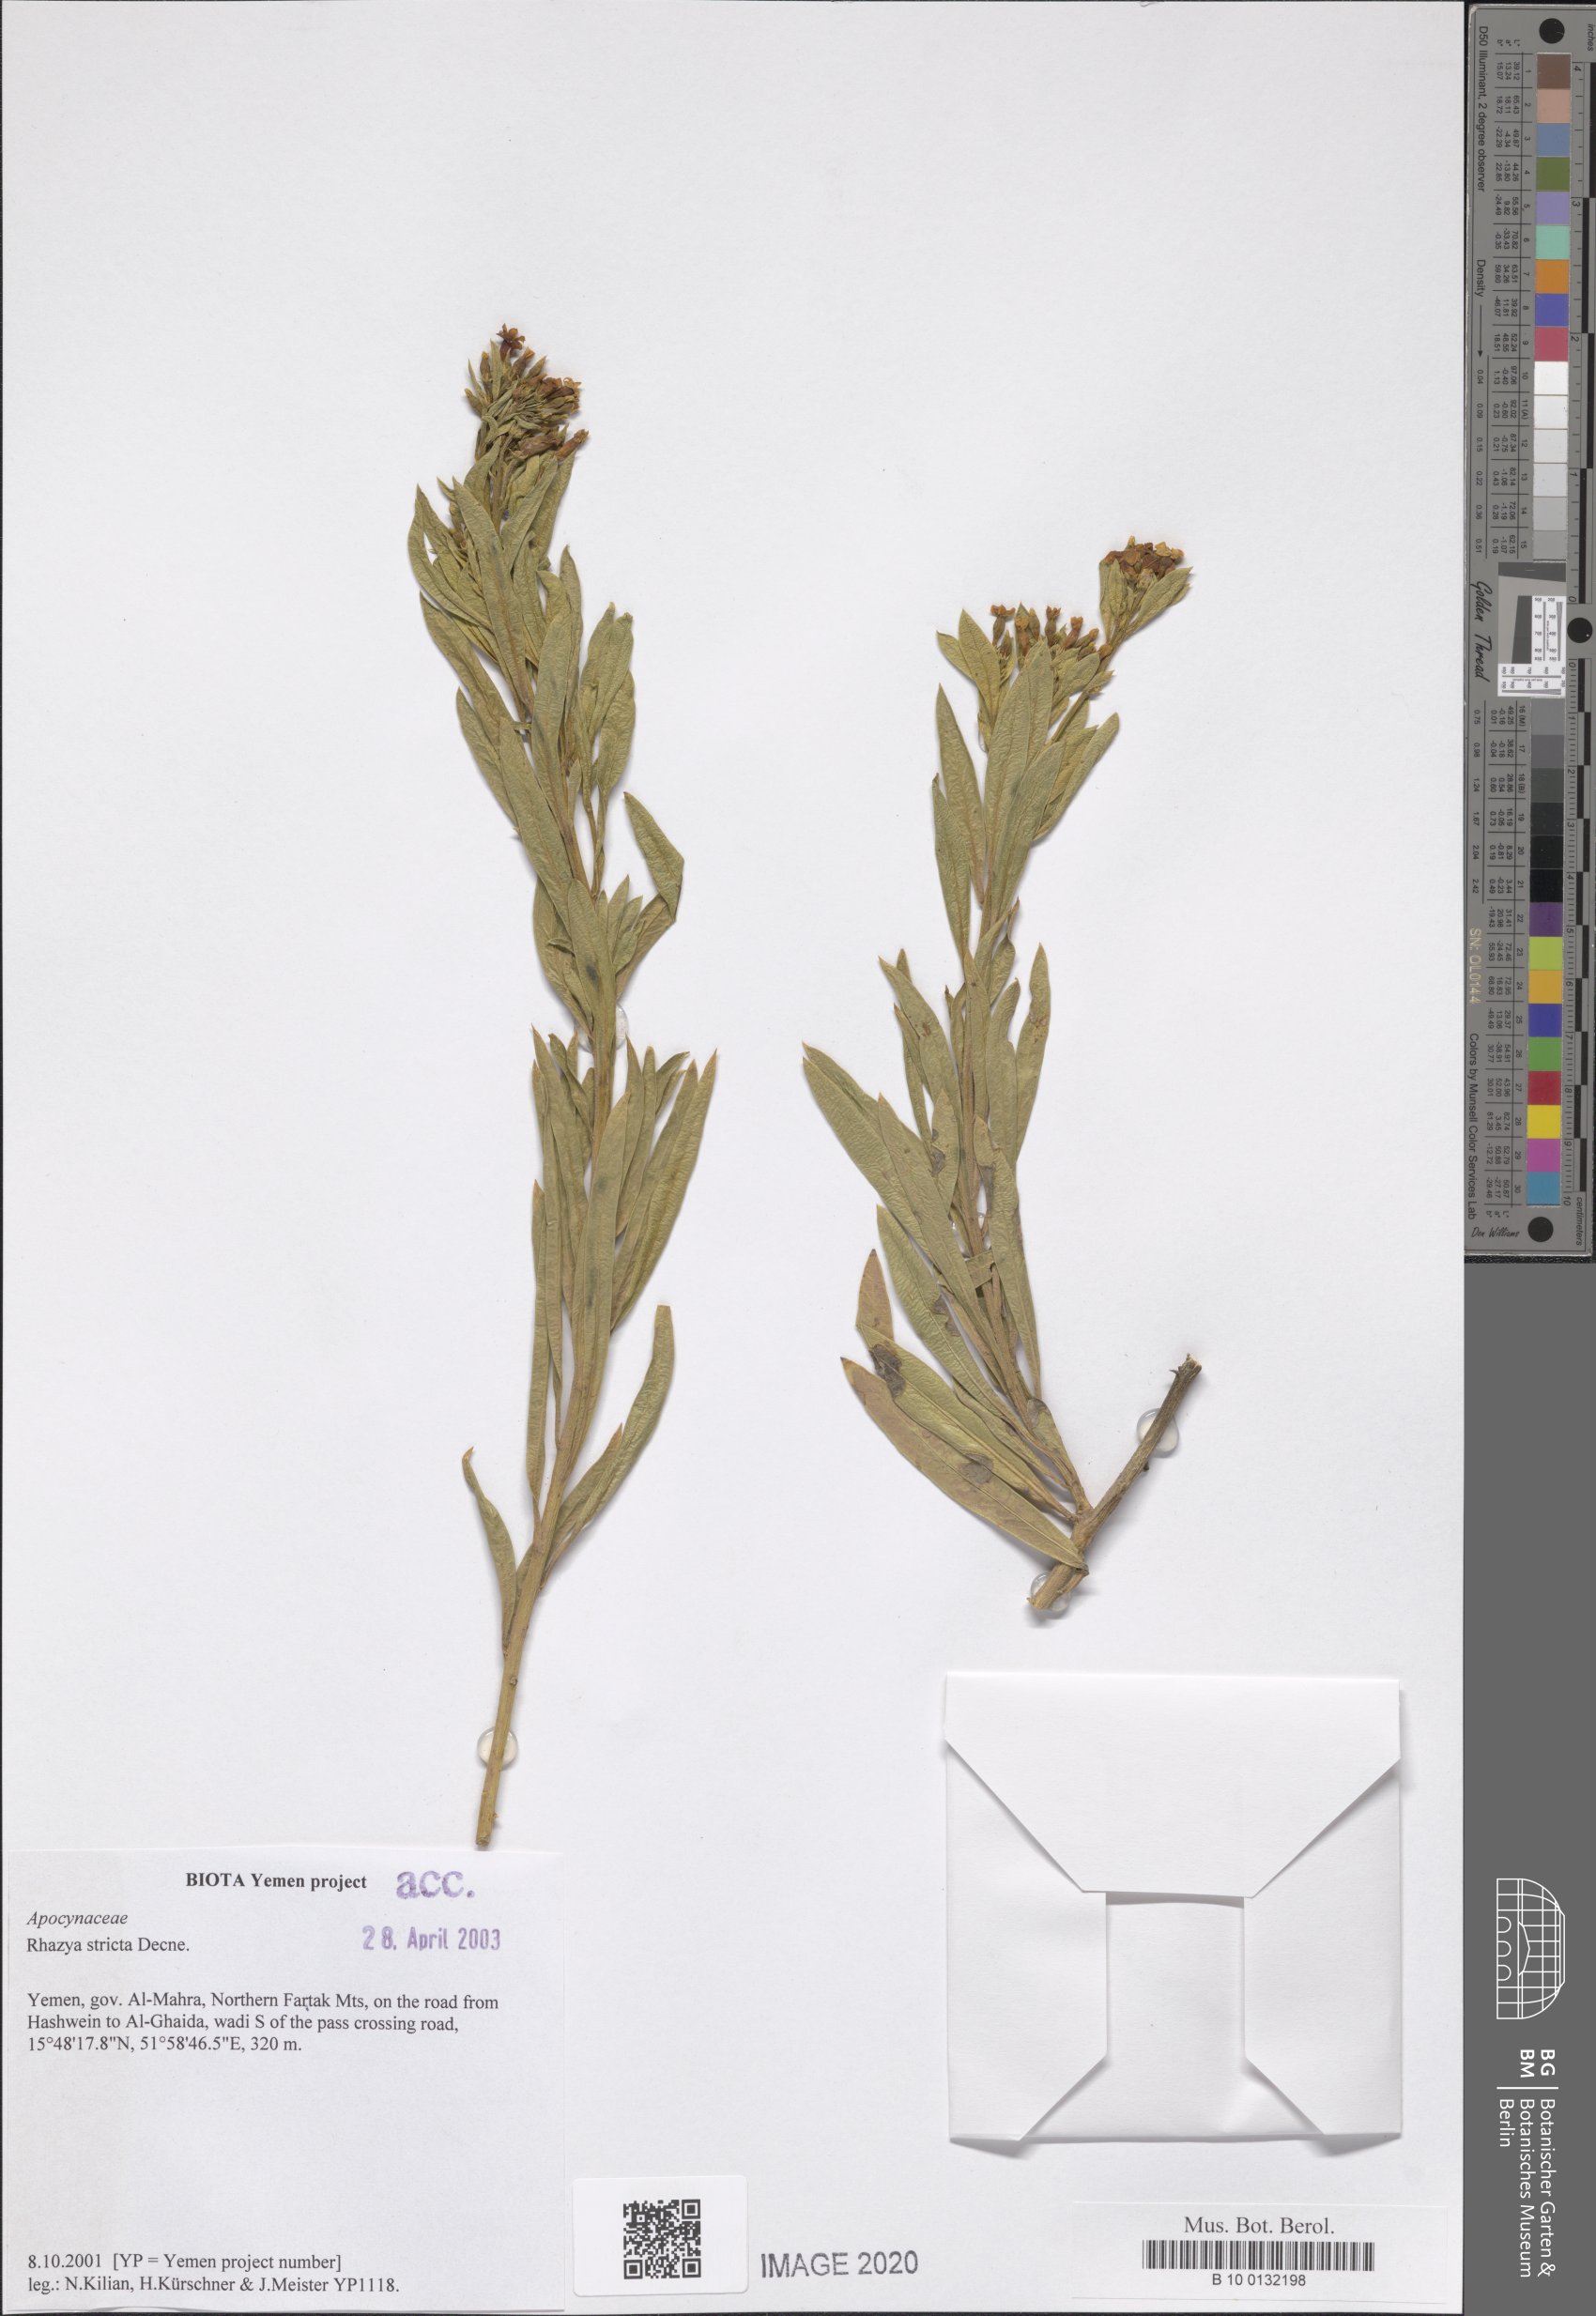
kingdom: Plantae
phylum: Tracheophyta
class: Magnoliopsida
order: Gentianales
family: Apocynaceae
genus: Rhazya
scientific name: Rhazya stricta
